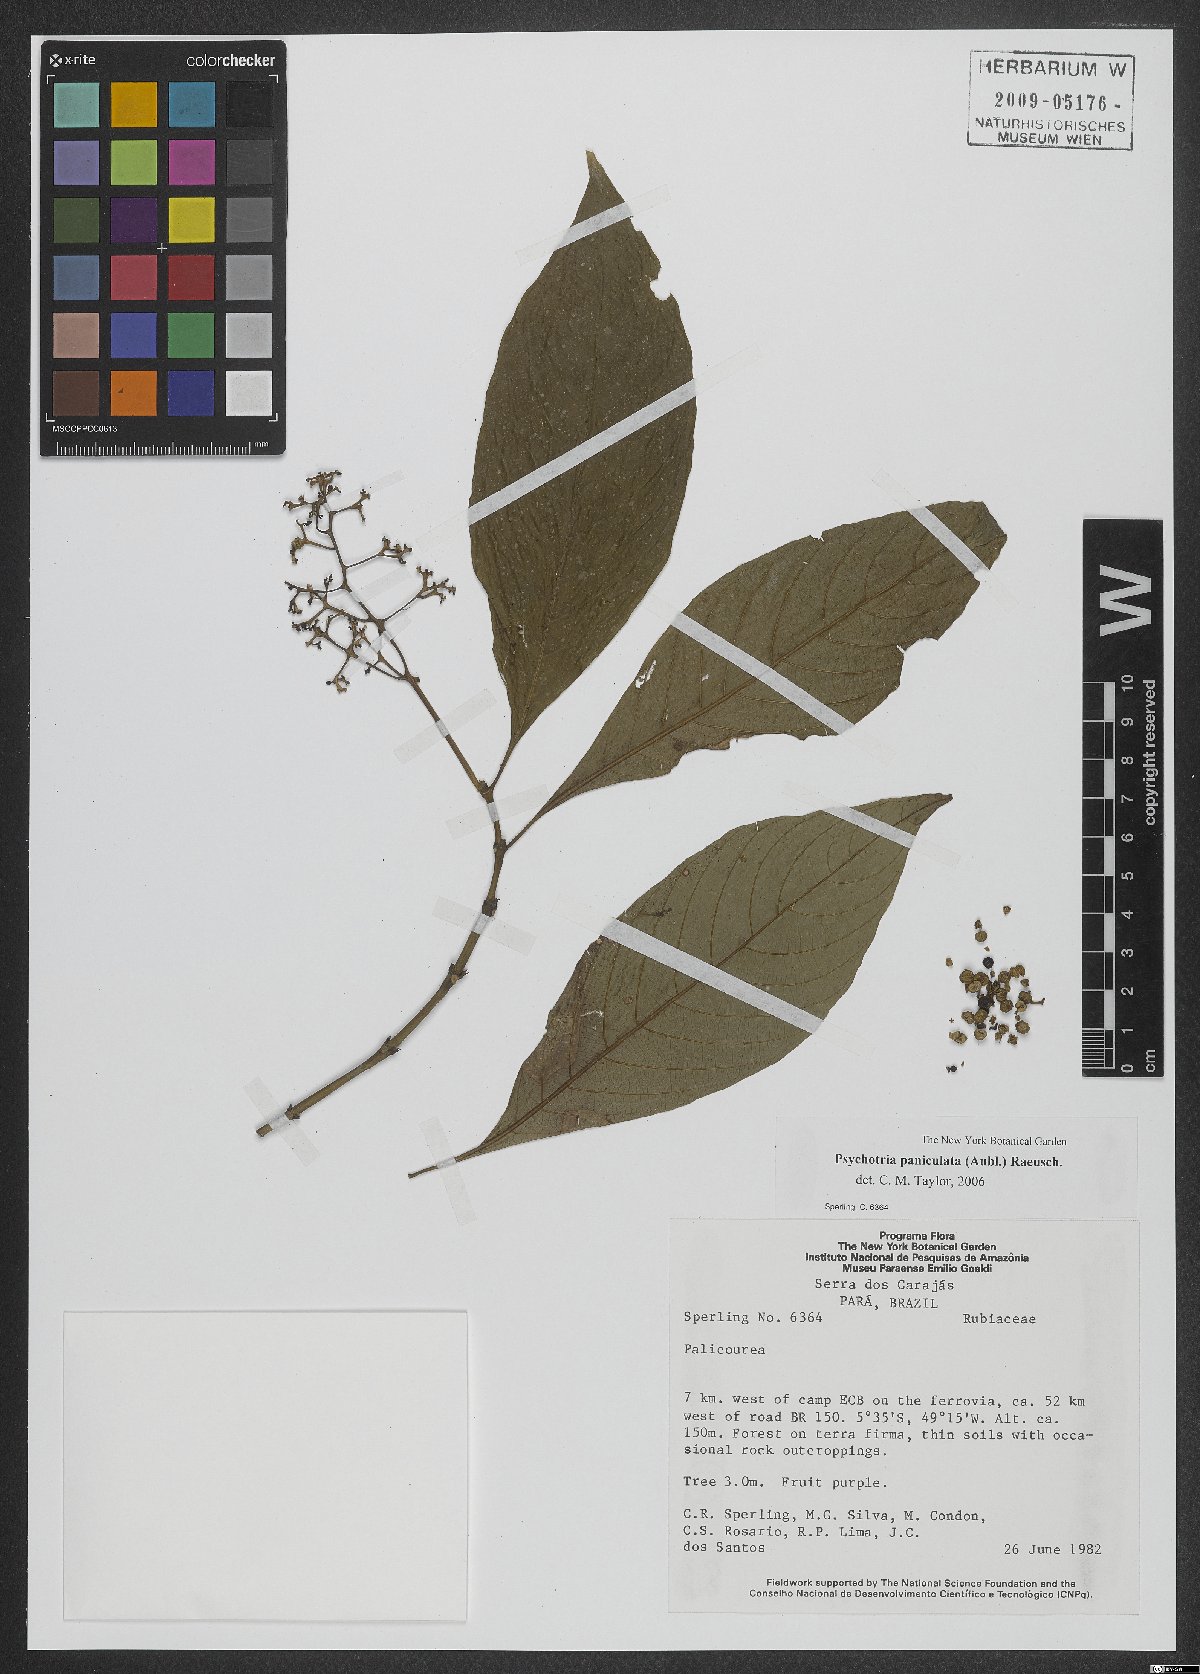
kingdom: Plantae
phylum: Tracheophyta
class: Magnoliopsida
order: Gentianales
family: Rubiaceae
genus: Palicourea
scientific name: Palicourea obliquinervia
